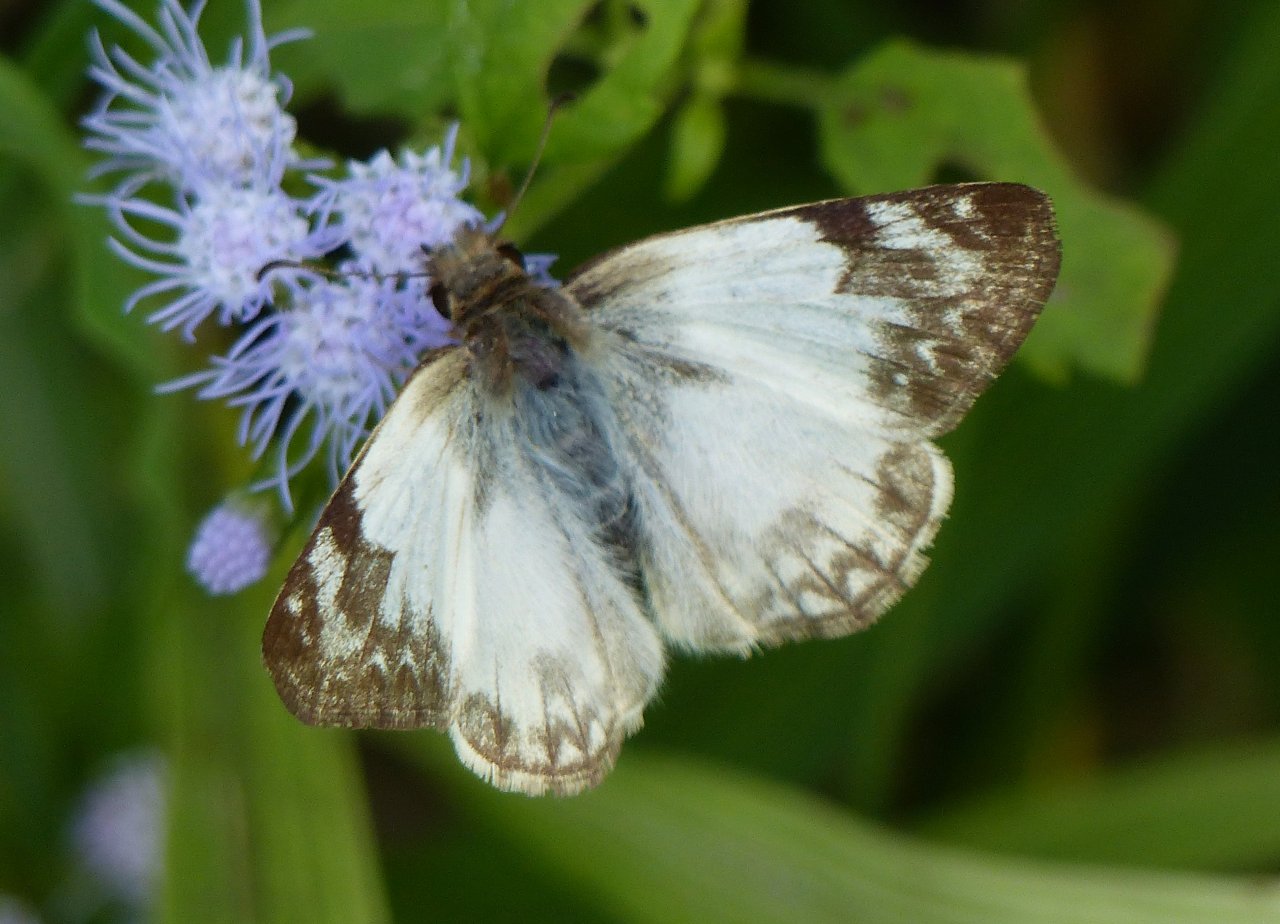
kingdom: Animalia
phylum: Arthropoda
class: Insecta
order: Lepidoptera
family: Hesperiidae
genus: Heliopetes
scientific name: Heliopetes laviana
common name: Laviana White-Skipper
